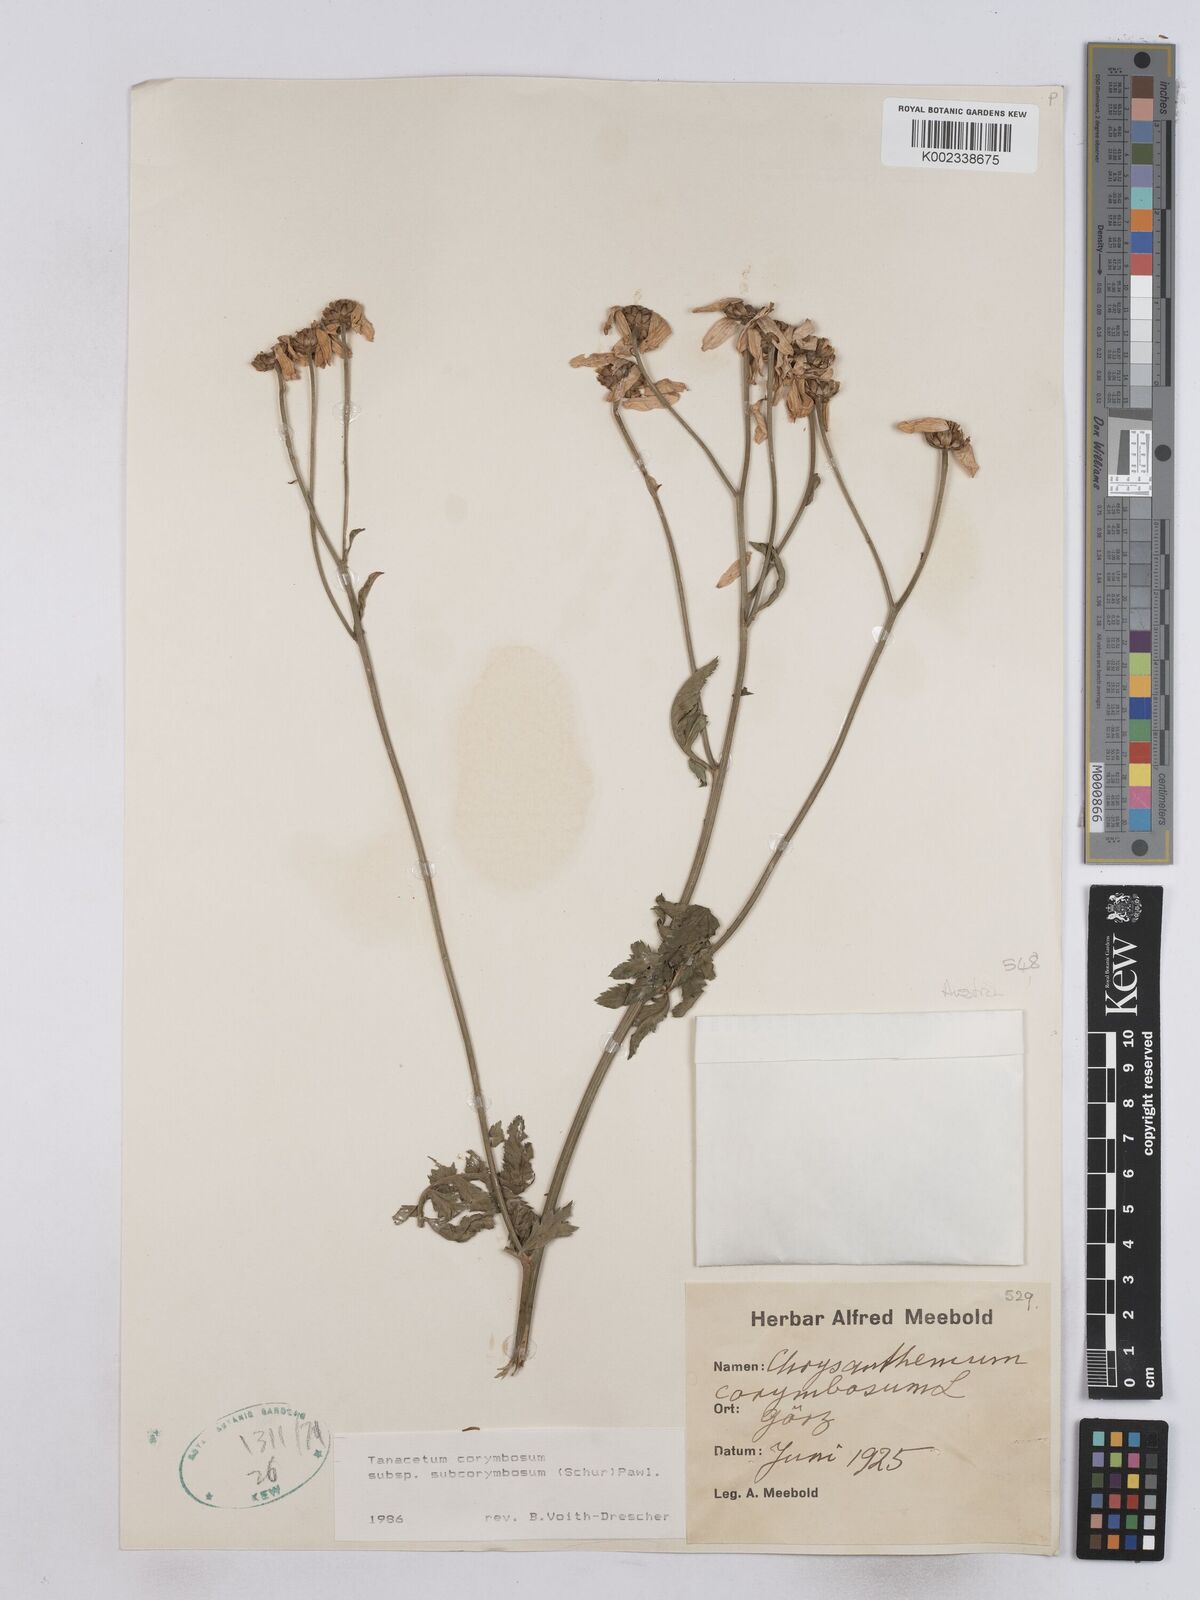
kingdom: Plantae
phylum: Tracheophyta
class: Magnoliopsida
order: Asterales
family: Asteraceae
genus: Tanacetum
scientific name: Tanacetum corymbosum
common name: Scentless feverfew
